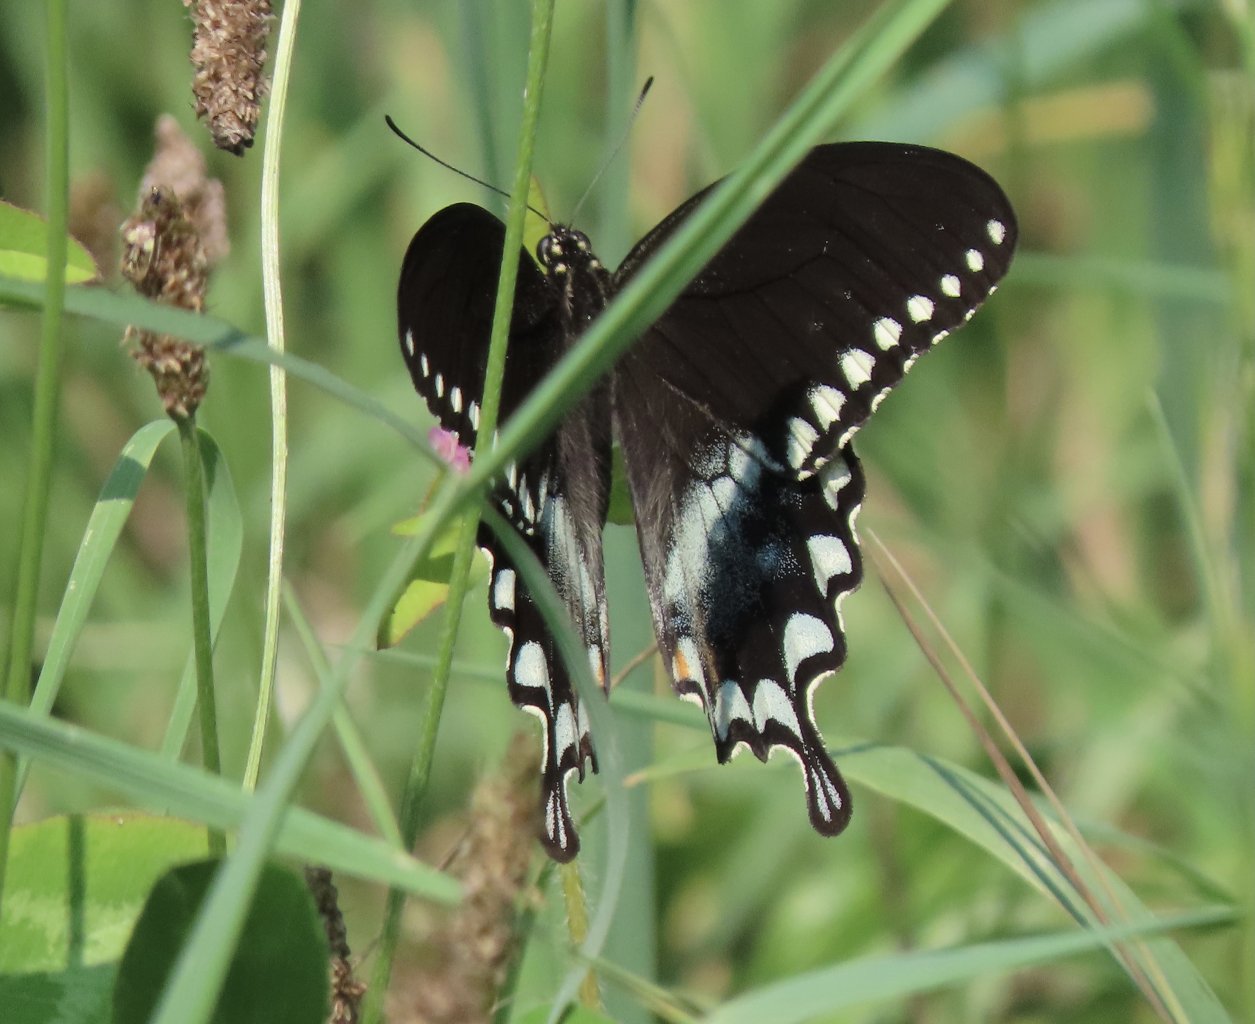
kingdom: Animalia
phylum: Arthropoda
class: Insecta
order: Lepidoptera
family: Papilionidae
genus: Pterourus
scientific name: Pterourus troilus
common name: Spicebush Swallowtail
